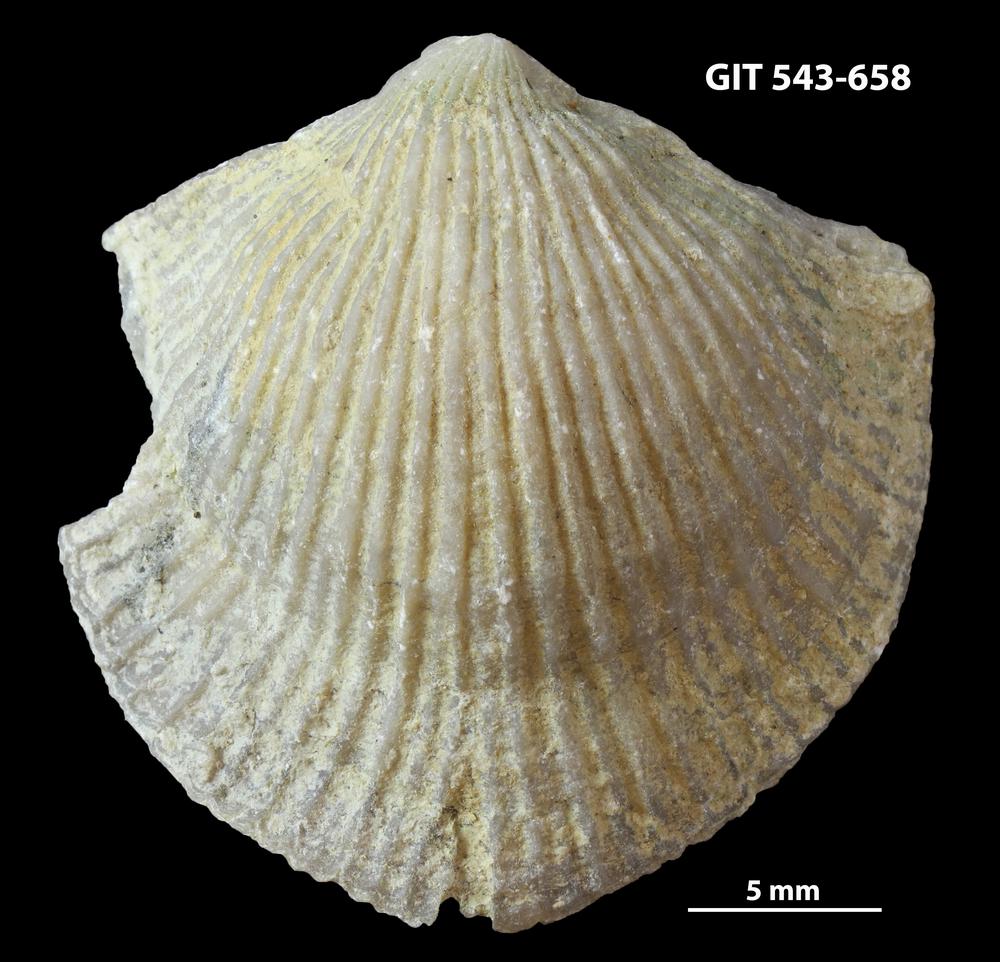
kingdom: Animalia
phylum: Brachiopoda
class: Rhynchonellata
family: Clitambonitidae
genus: Vellamo
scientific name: Vellamo Orthis verneuili
